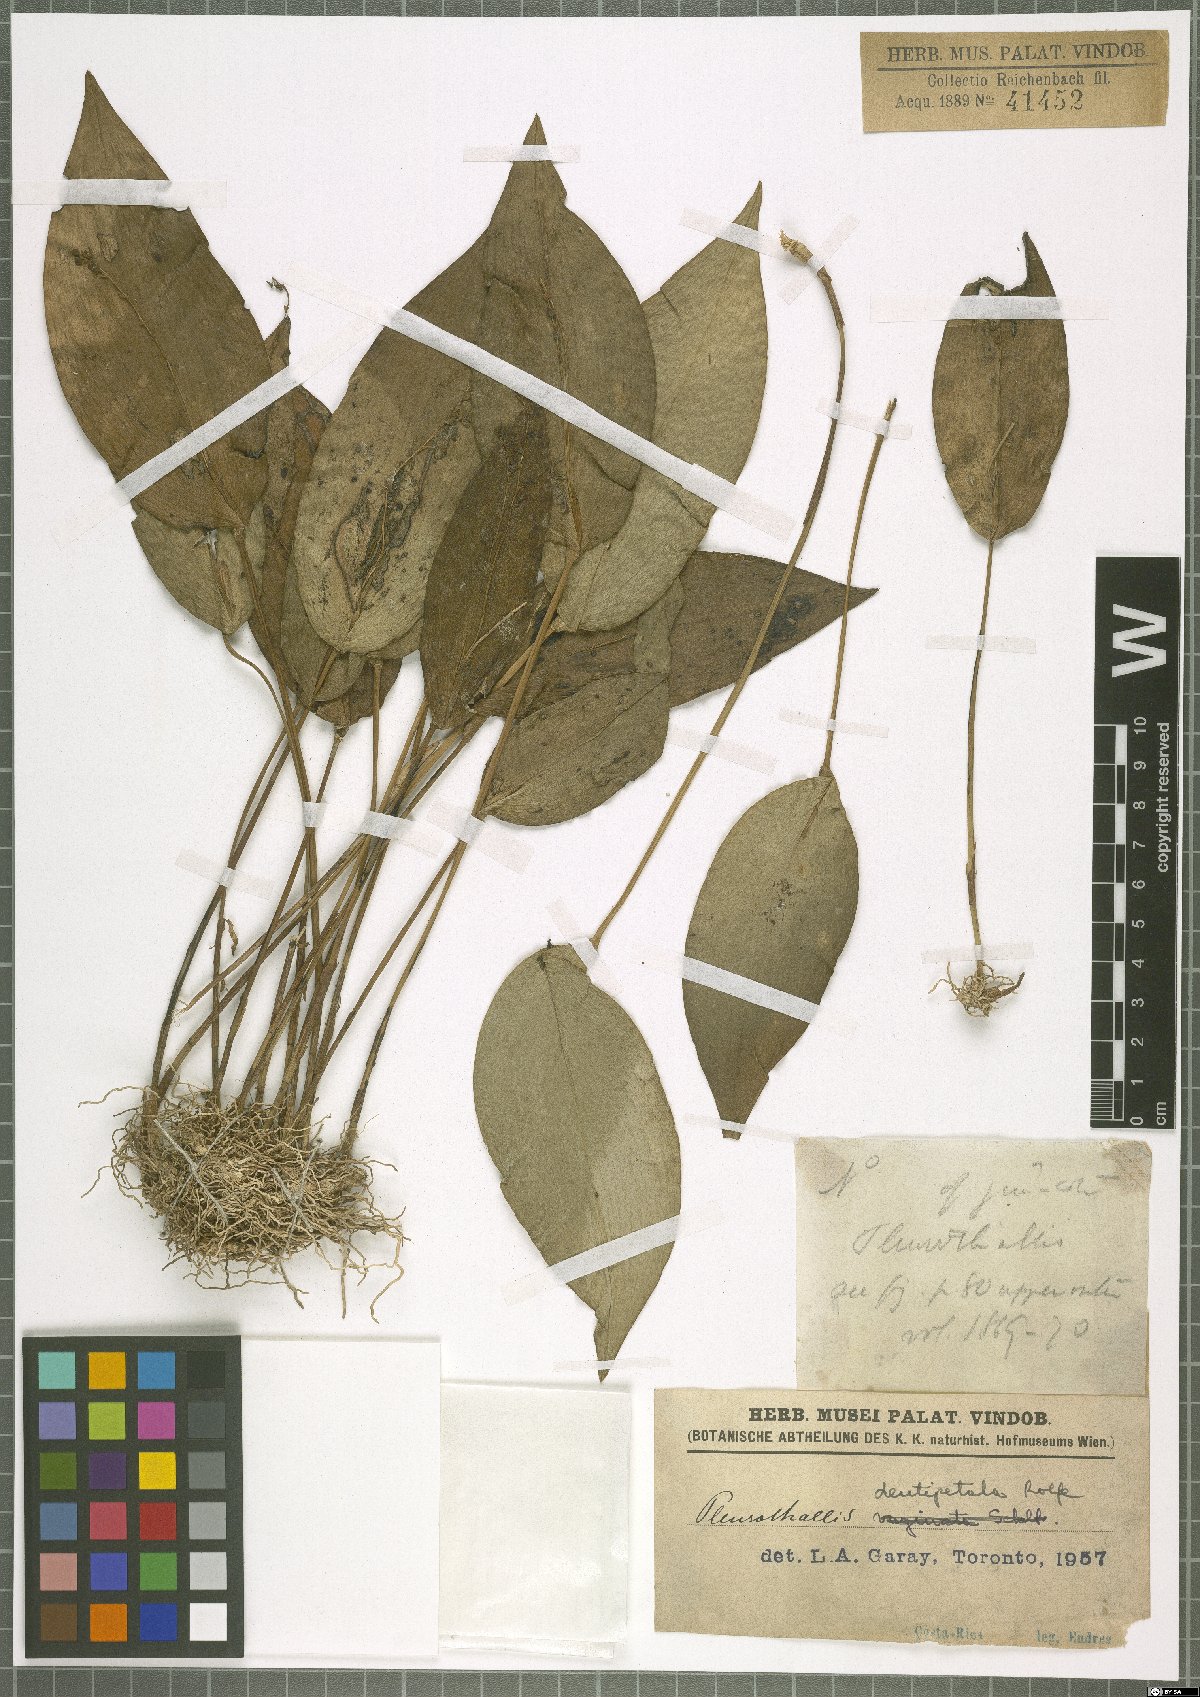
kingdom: Plantae
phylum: Tracheophyta
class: Liliopsida
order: Asparagales
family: Orchidaceae
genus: Pleurothallis
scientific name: Pleurothallis dentipetala
